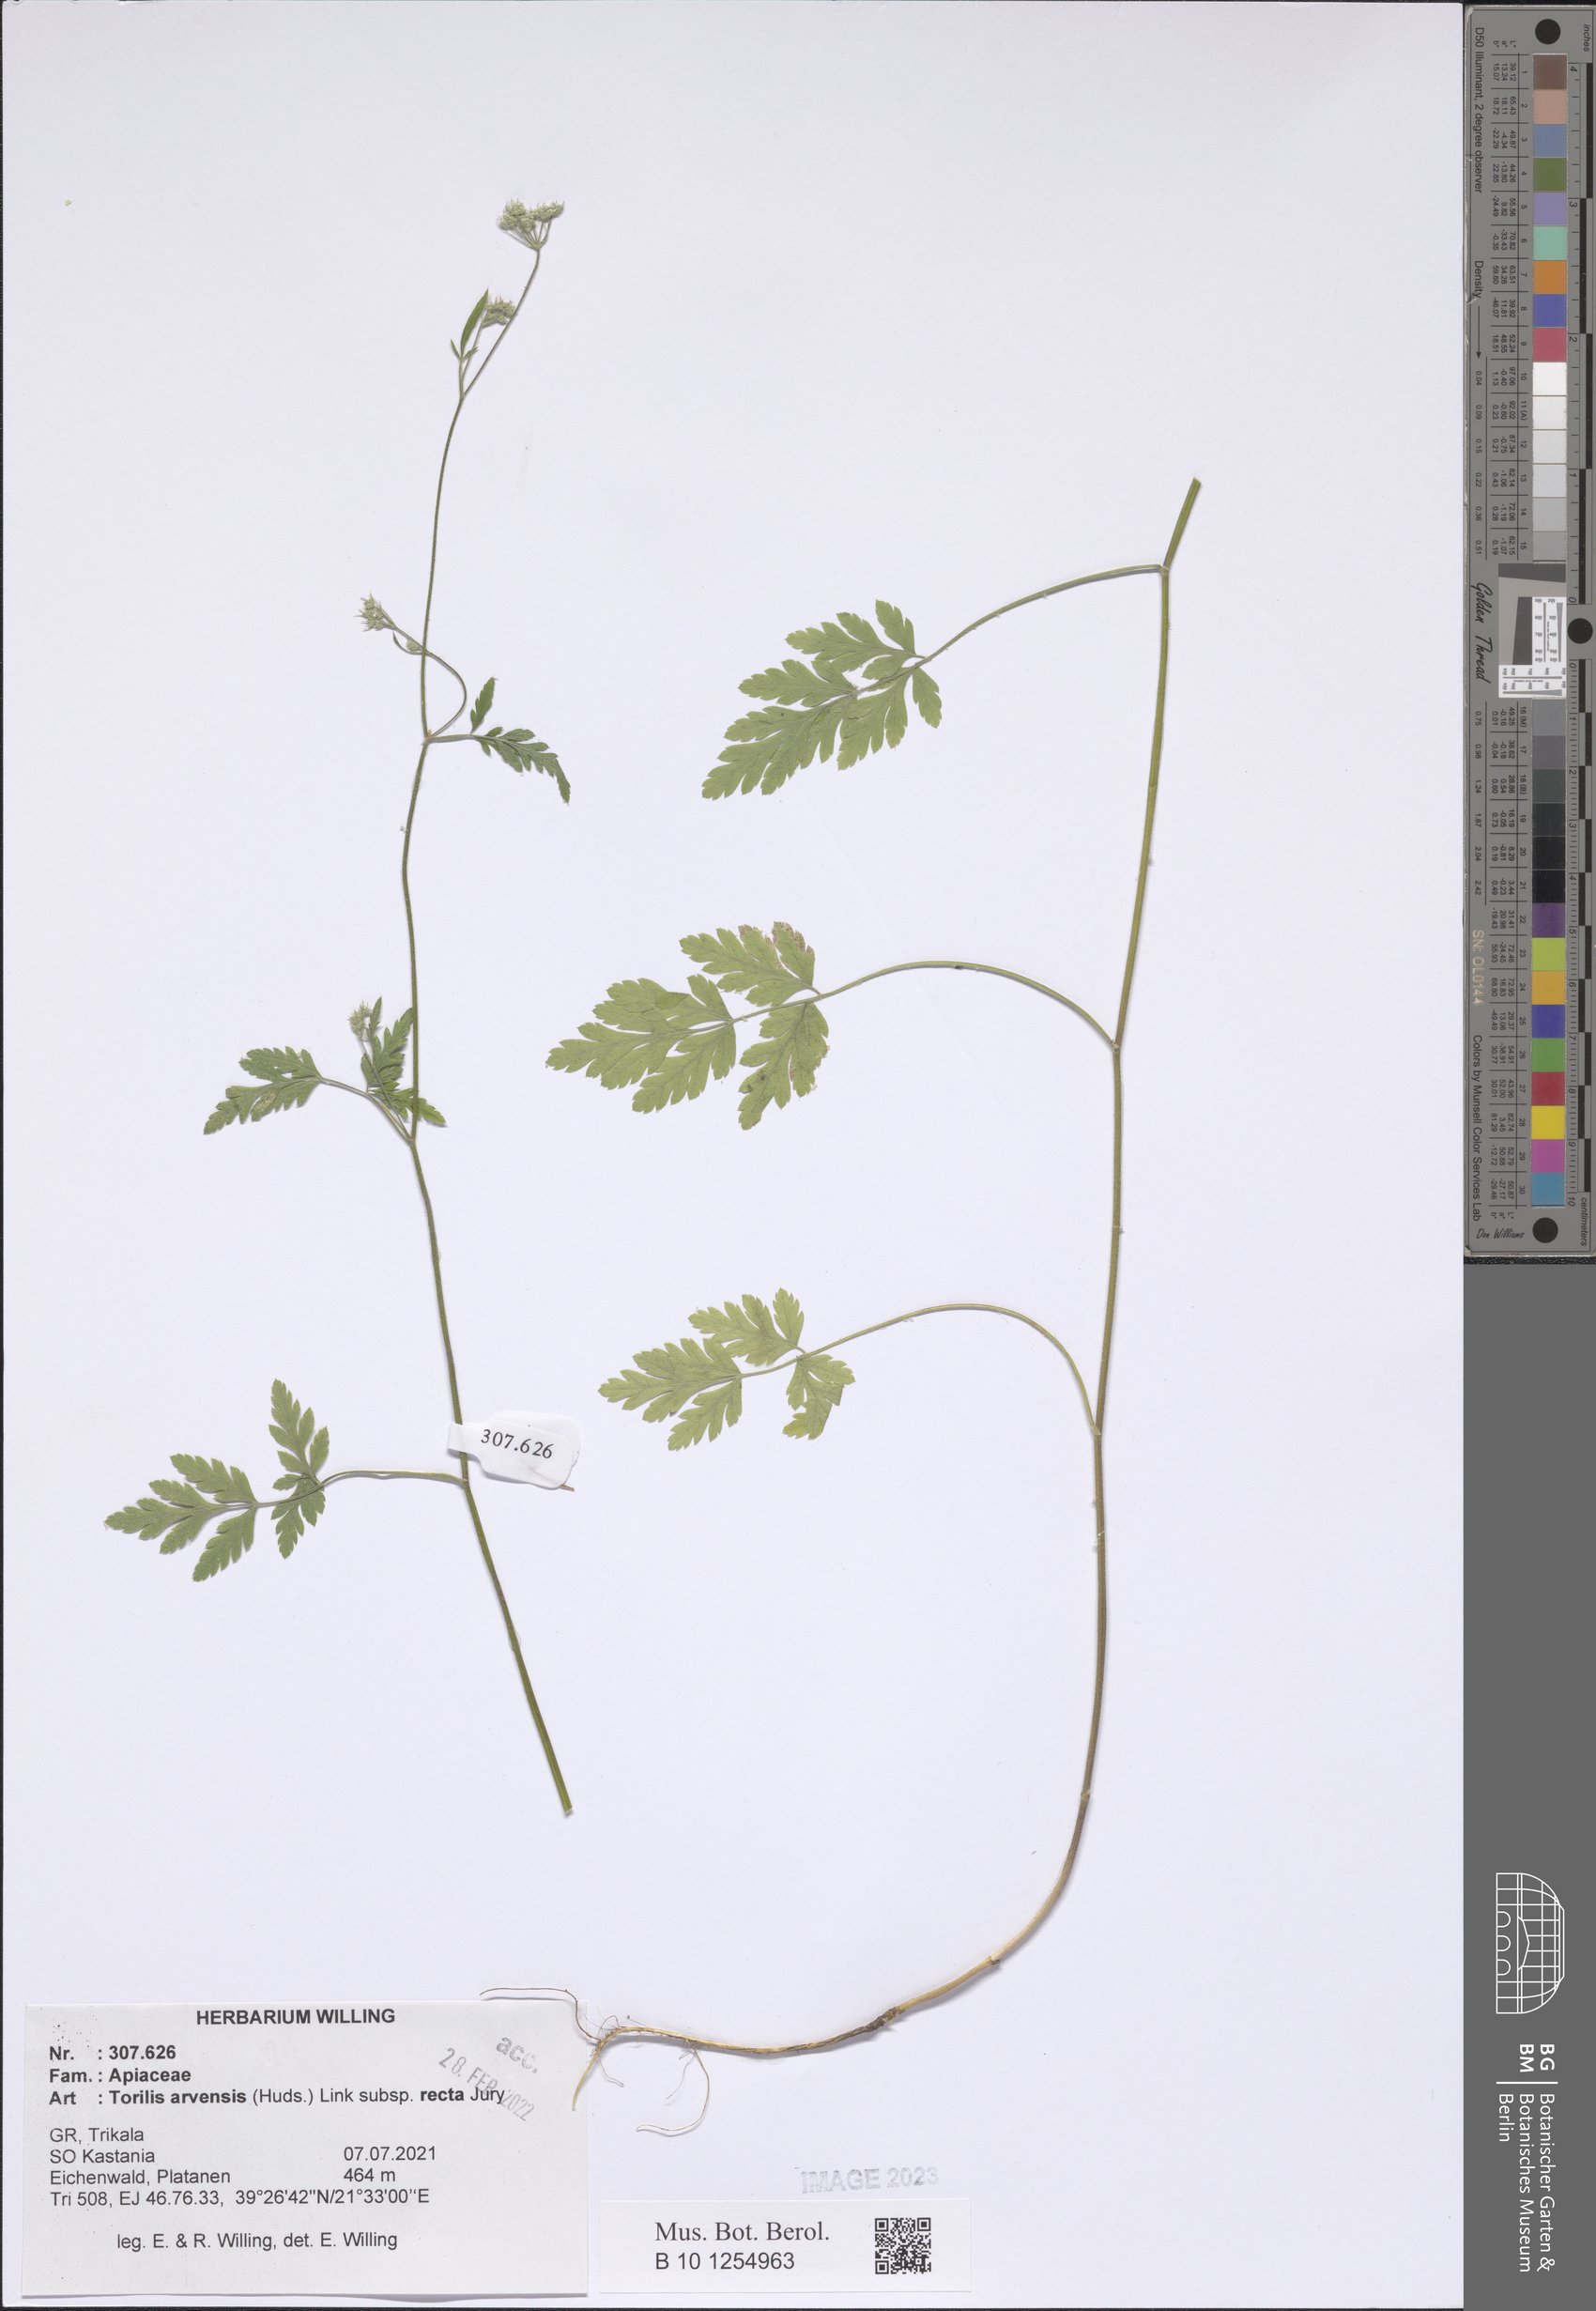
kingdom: Plantae
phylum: Tracheophyta
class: Magnoliopsida
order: Apiales
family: Apiaceae
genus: Torilis
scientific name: Torilis arvensis
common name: Spreading hedge-parsley
